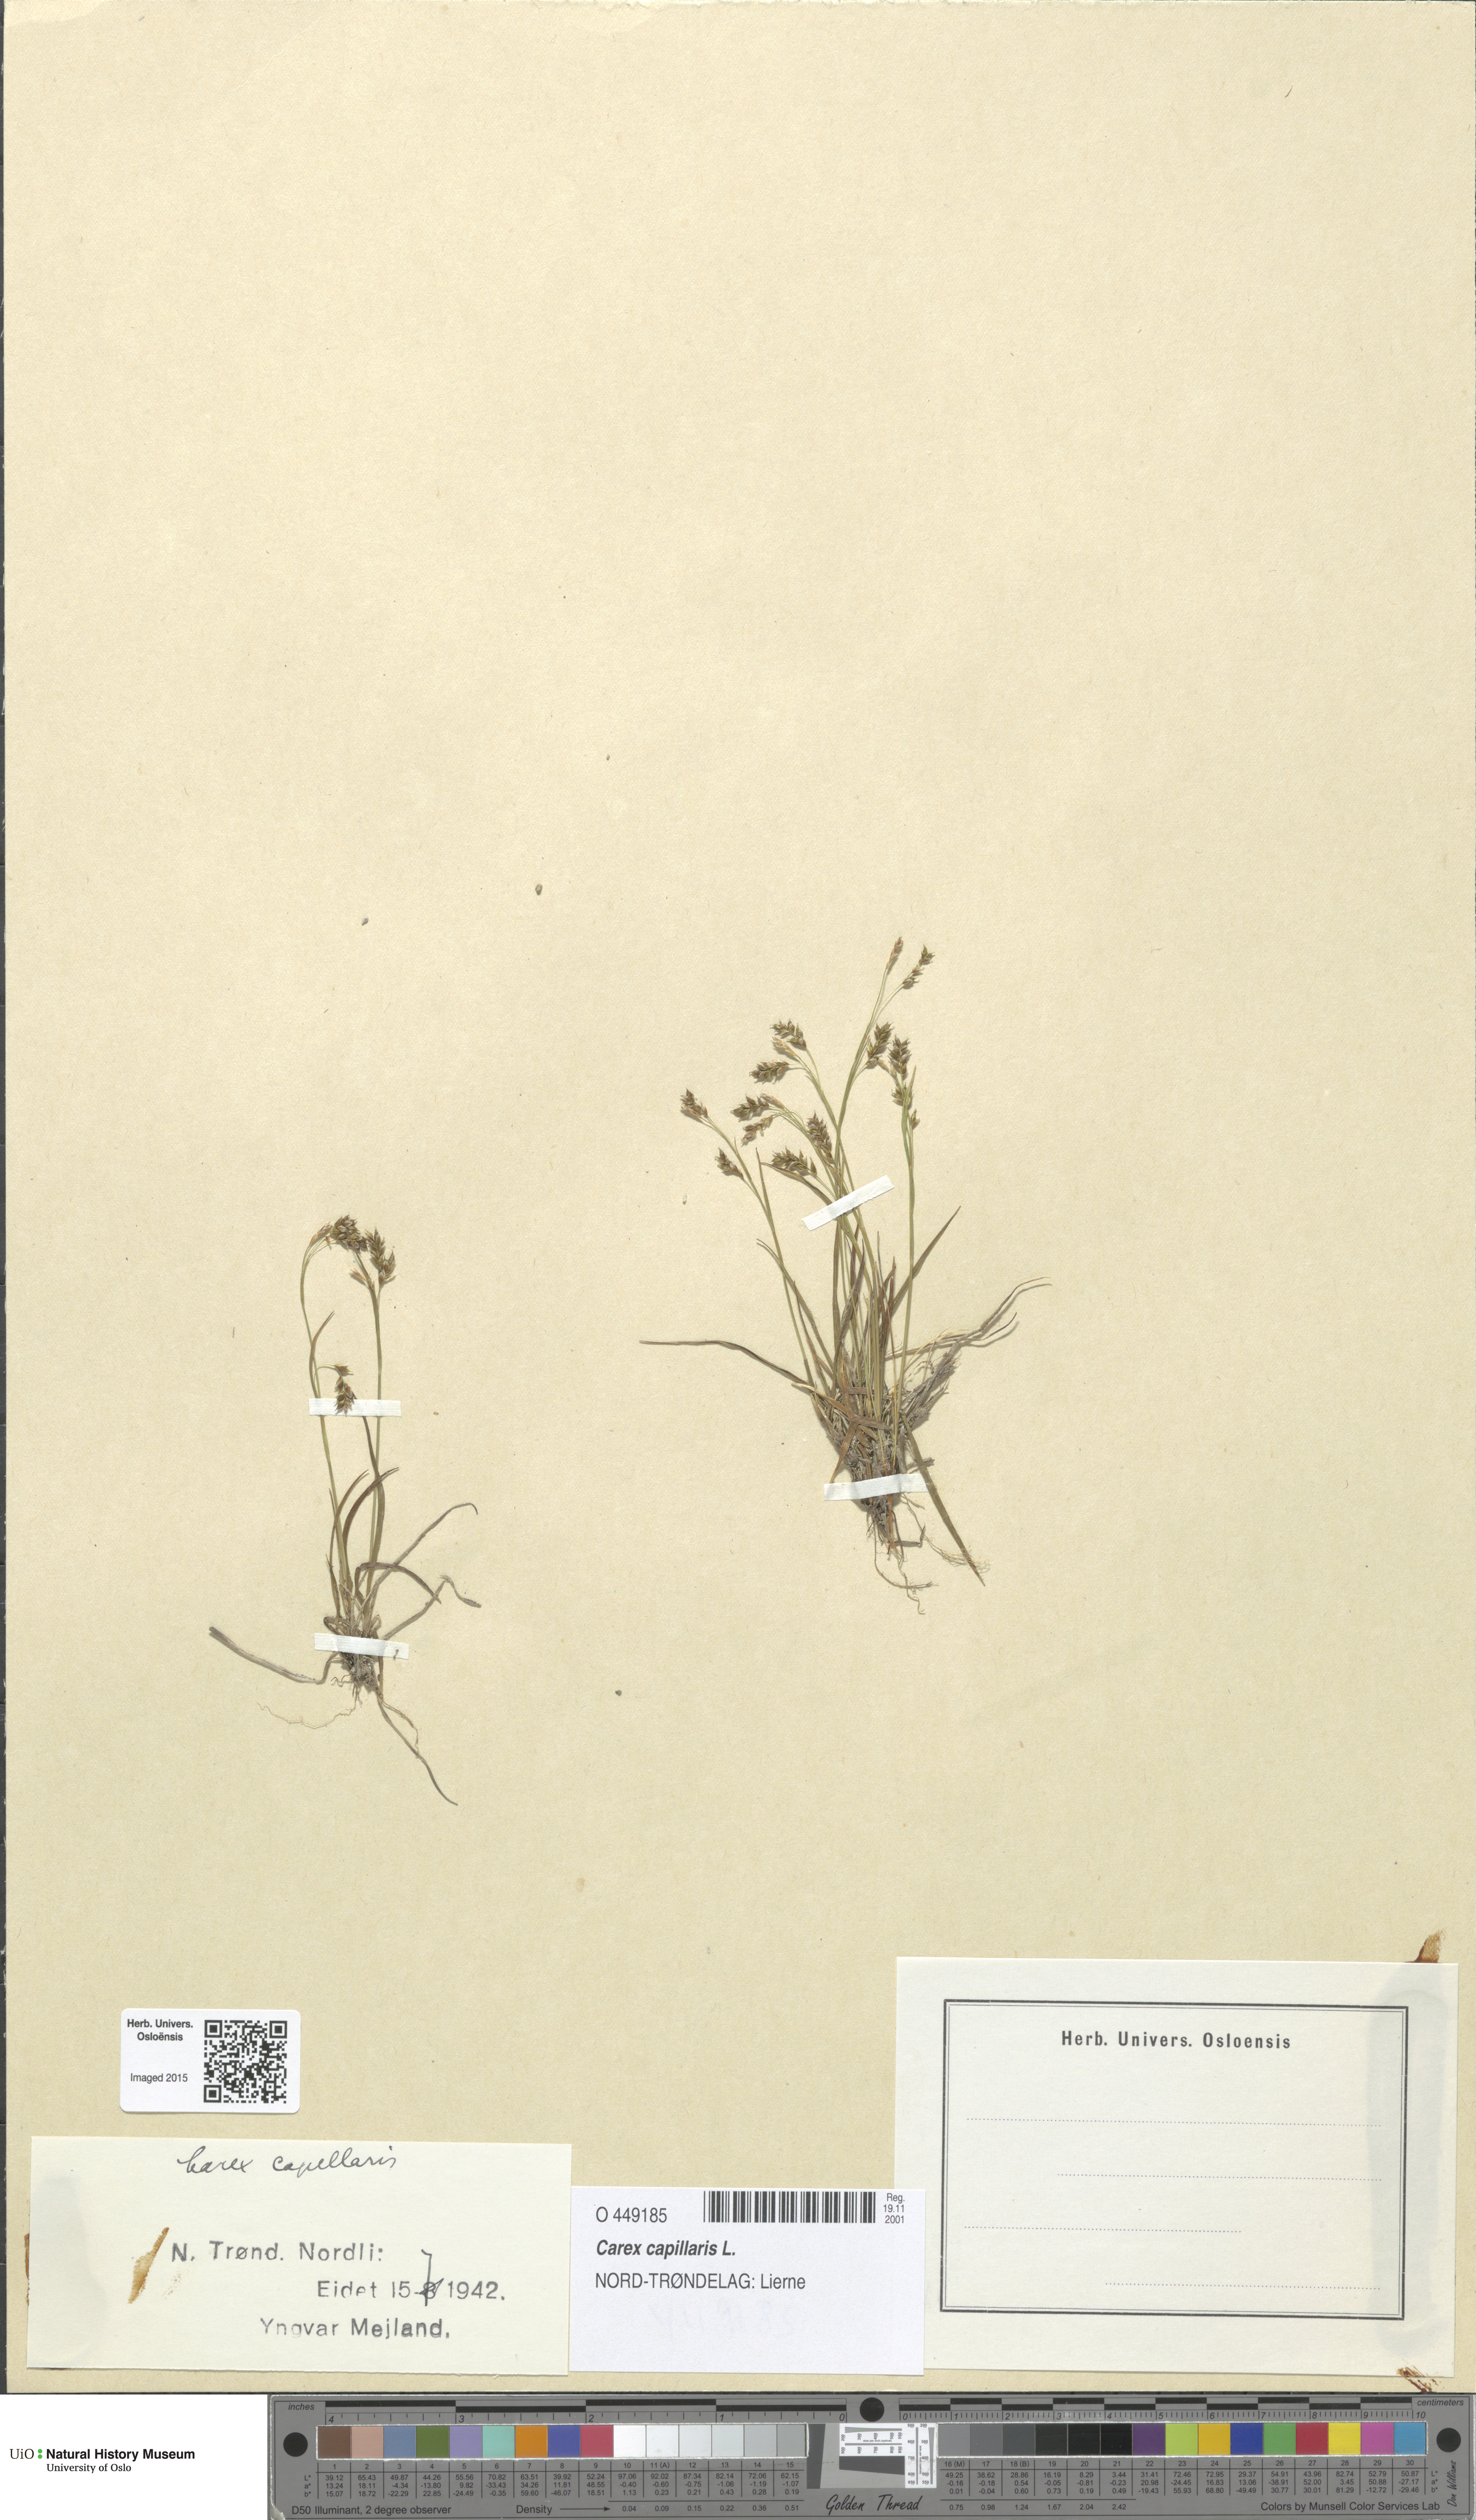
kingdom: Plantae
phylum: Tracheophyta
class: Liliopsida
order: Poales
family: Cyperaceae
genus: Carex
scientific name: Carex capillaris
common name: Hair sedge
